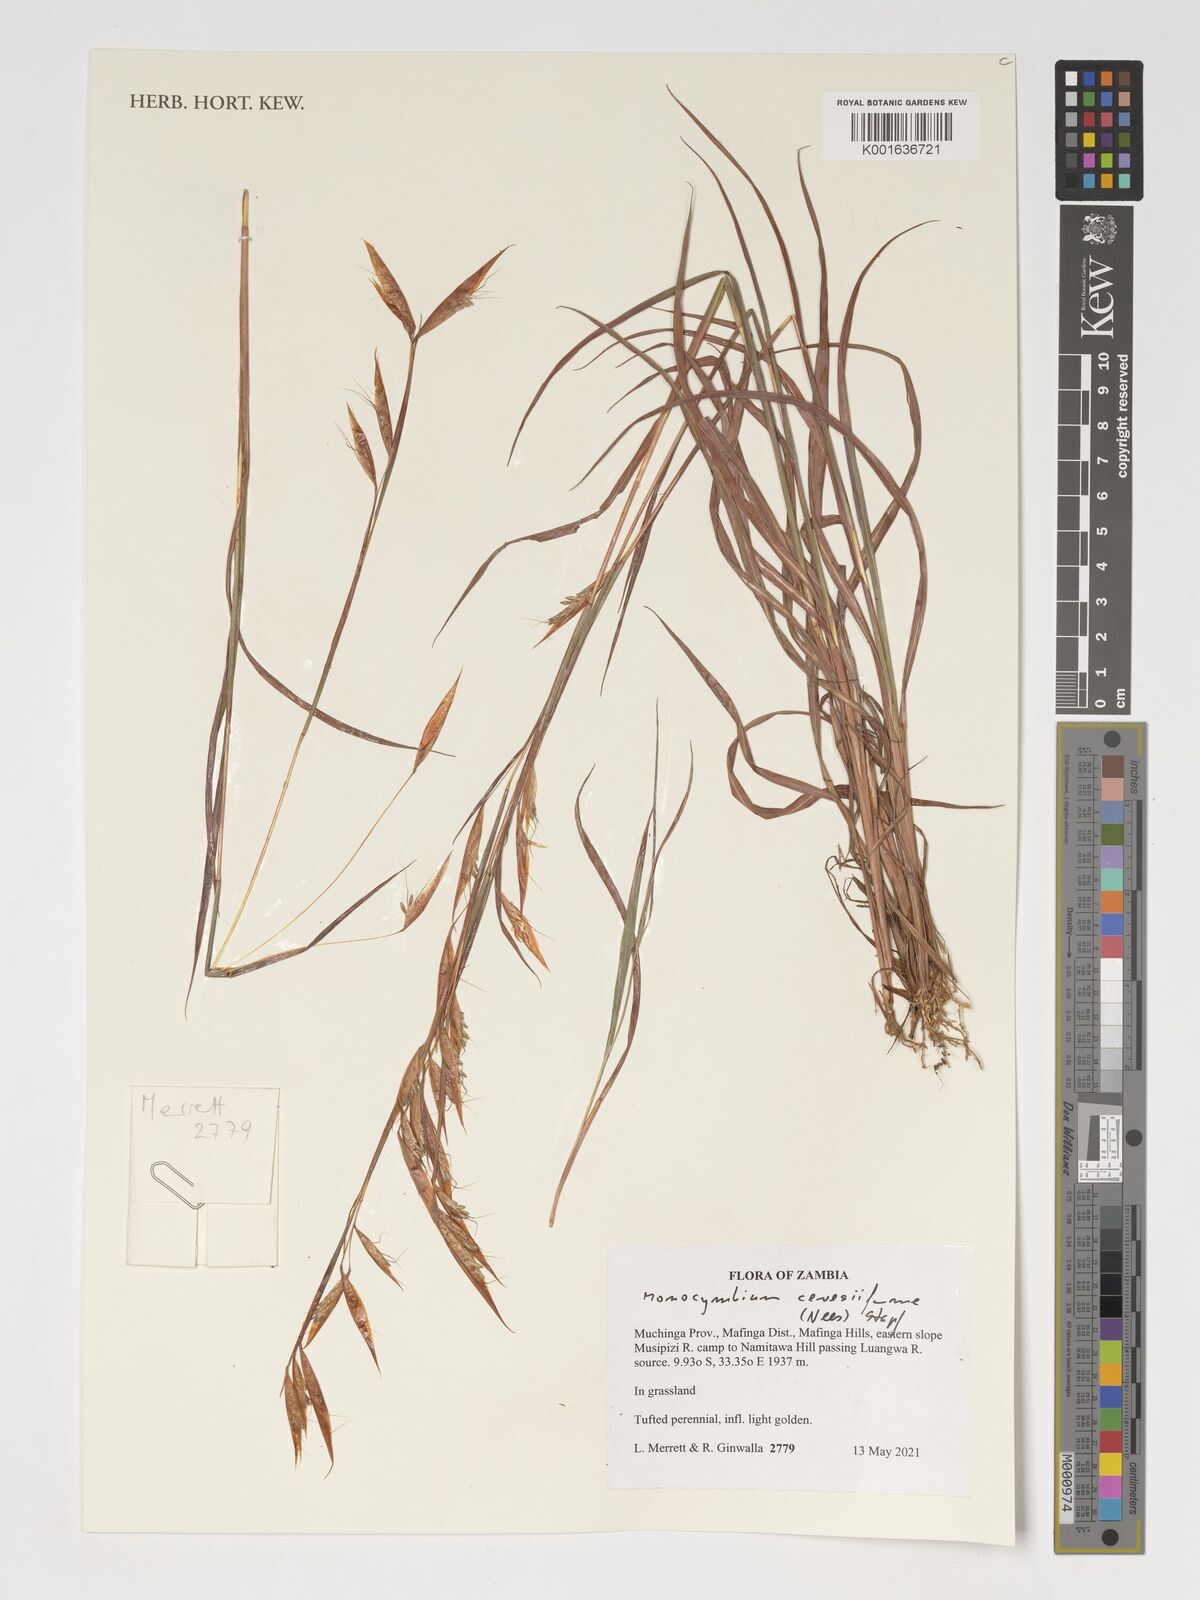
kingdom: Plantae
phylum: Tracheophyta
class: Liliopsida
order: Poales
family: Poaceae
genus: Monocymbium
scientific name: Monocymbium ceresiiforme
